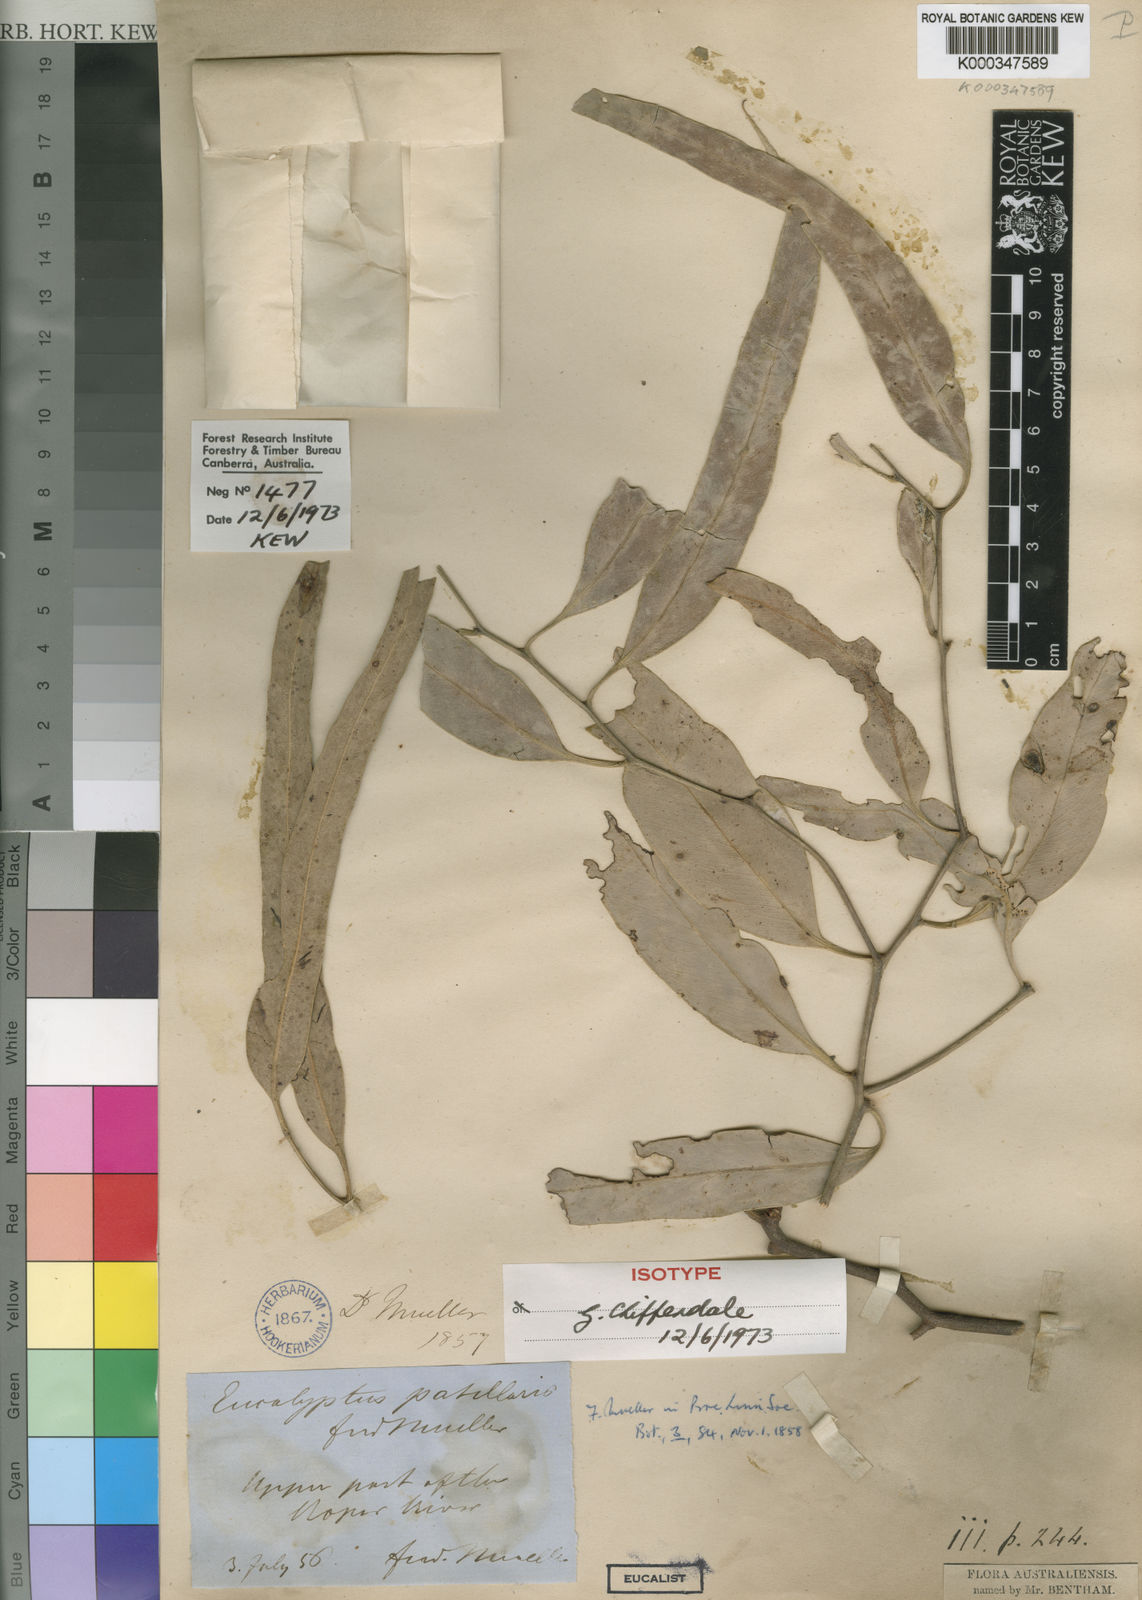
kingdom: Plantae
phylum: Tracheophyta
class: Magnoliopsida
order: Myrtales
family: Myrtaceae
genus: Eucalyptus
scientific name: Eucalyptus patellaris
